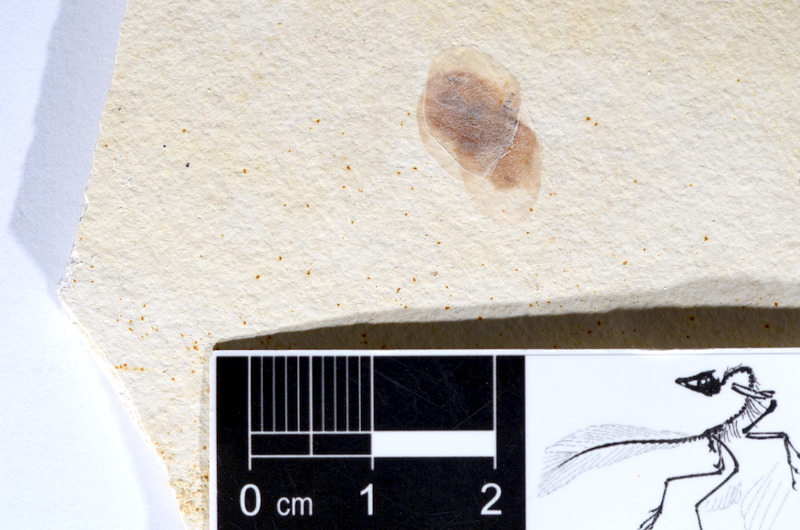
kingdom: Animalia
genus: Halecomorphi
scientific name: Halecomorphi
